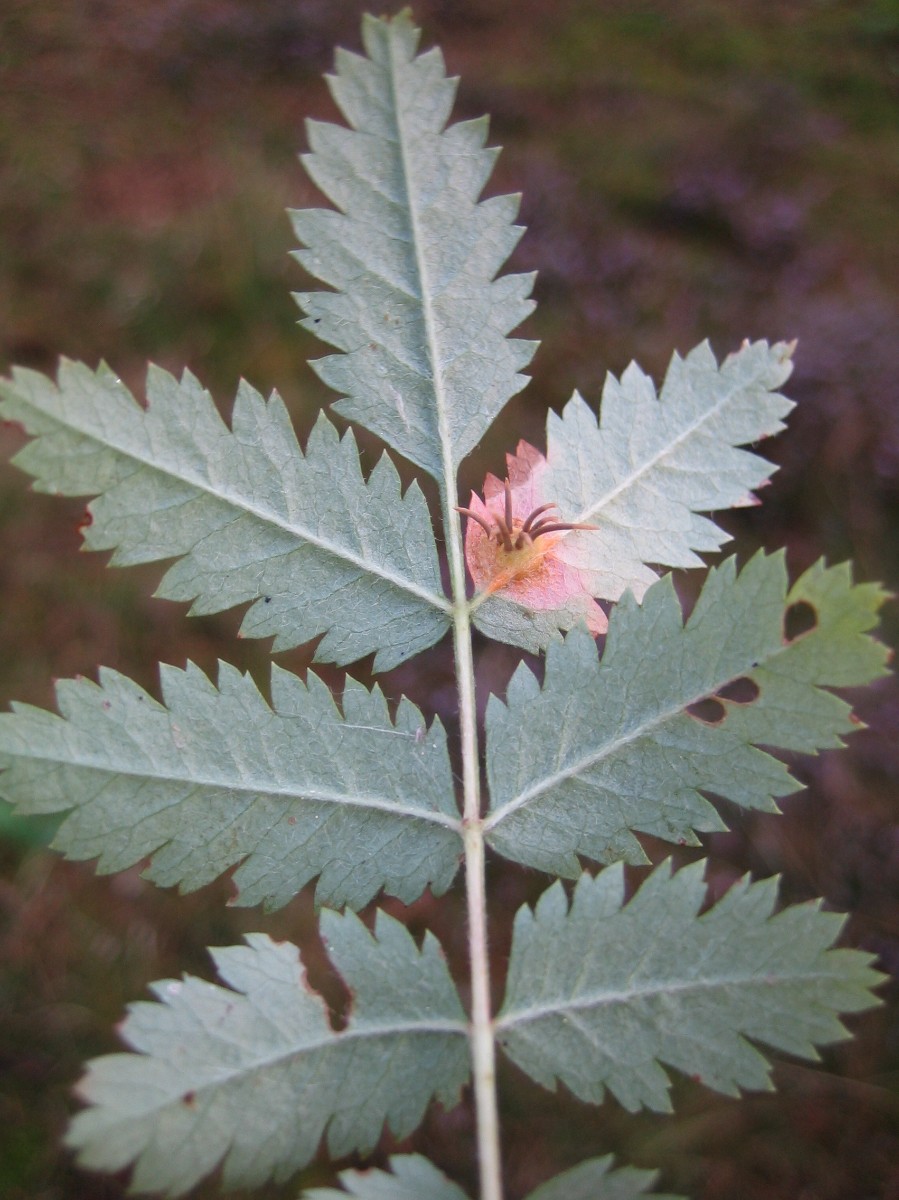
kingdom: Fungi
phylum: Basidiomycota
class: Pucciniomycetes
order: Pucciniales
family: Gymnosporangiaceae
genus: Gymnosporangium
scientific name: Gymnosporangium cornutum
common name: rønnehorn-bævrerust
